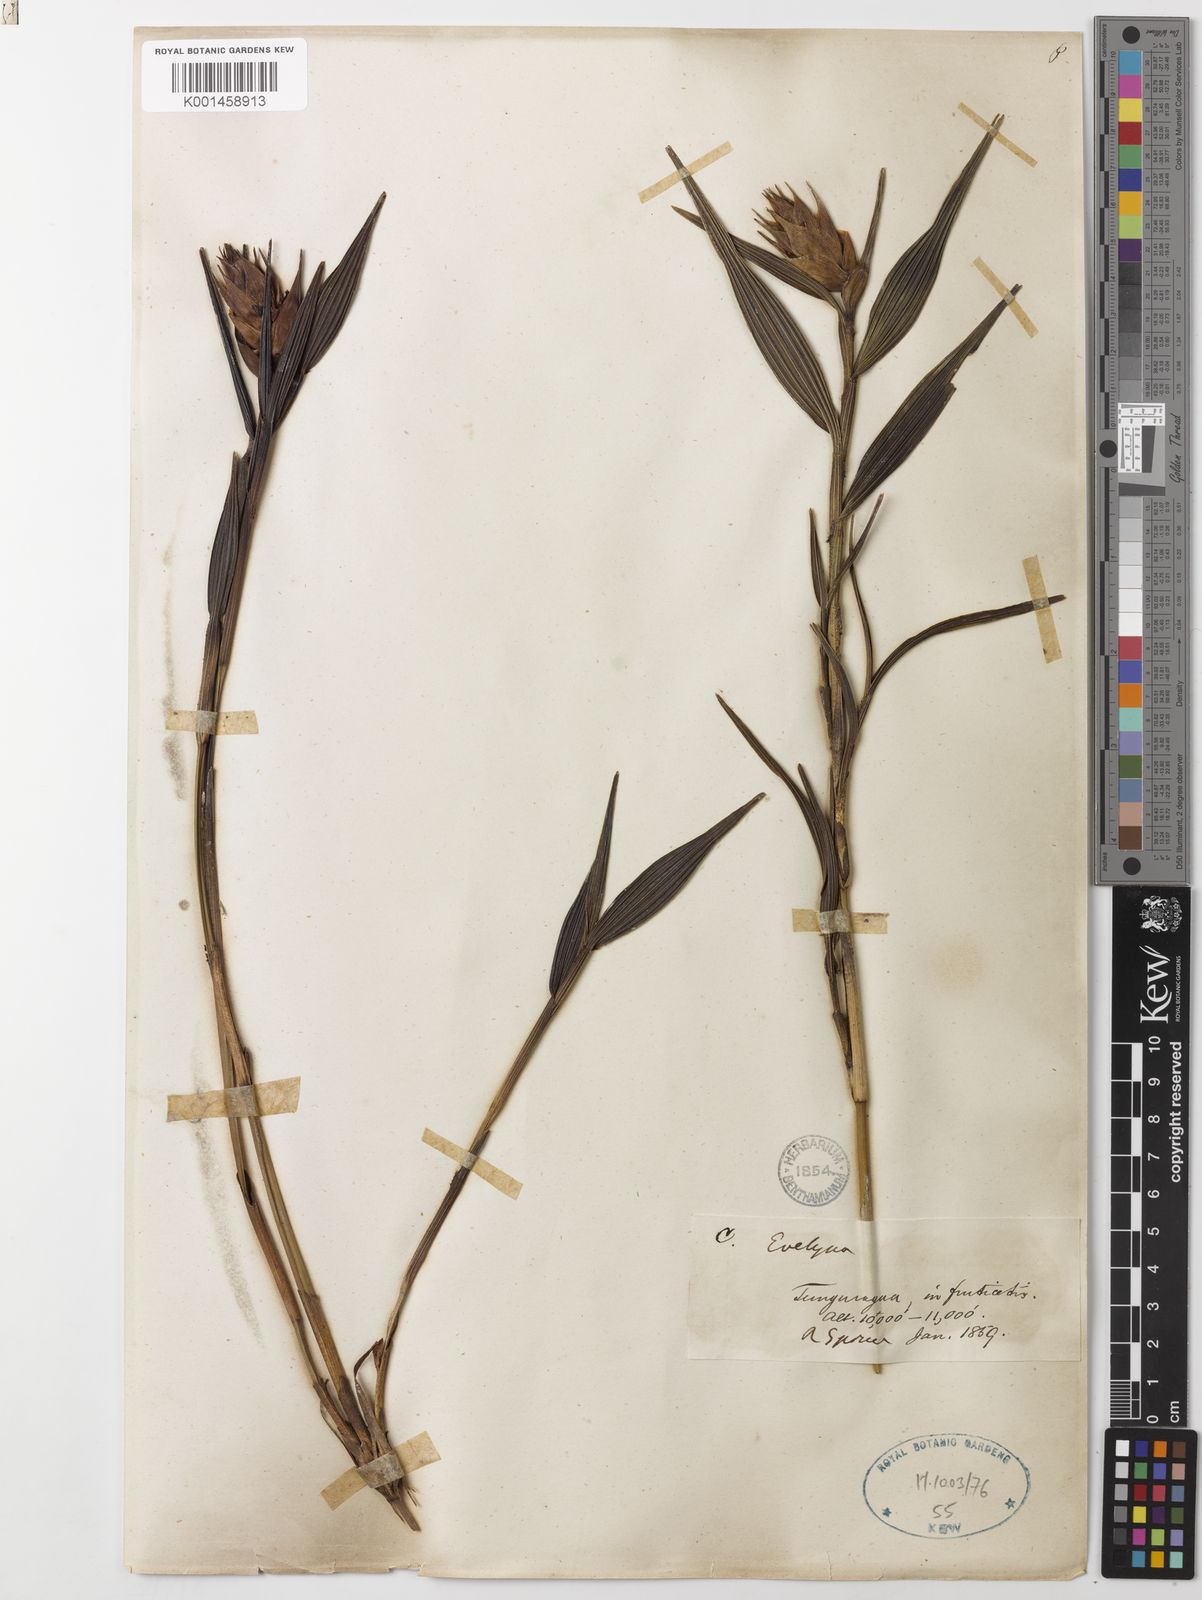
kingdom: Plantae
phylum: Tracheophyta
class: Liliopsida
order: Asparagales
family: Orchidaceae
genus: Elleanthus
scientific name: Elleanthus
